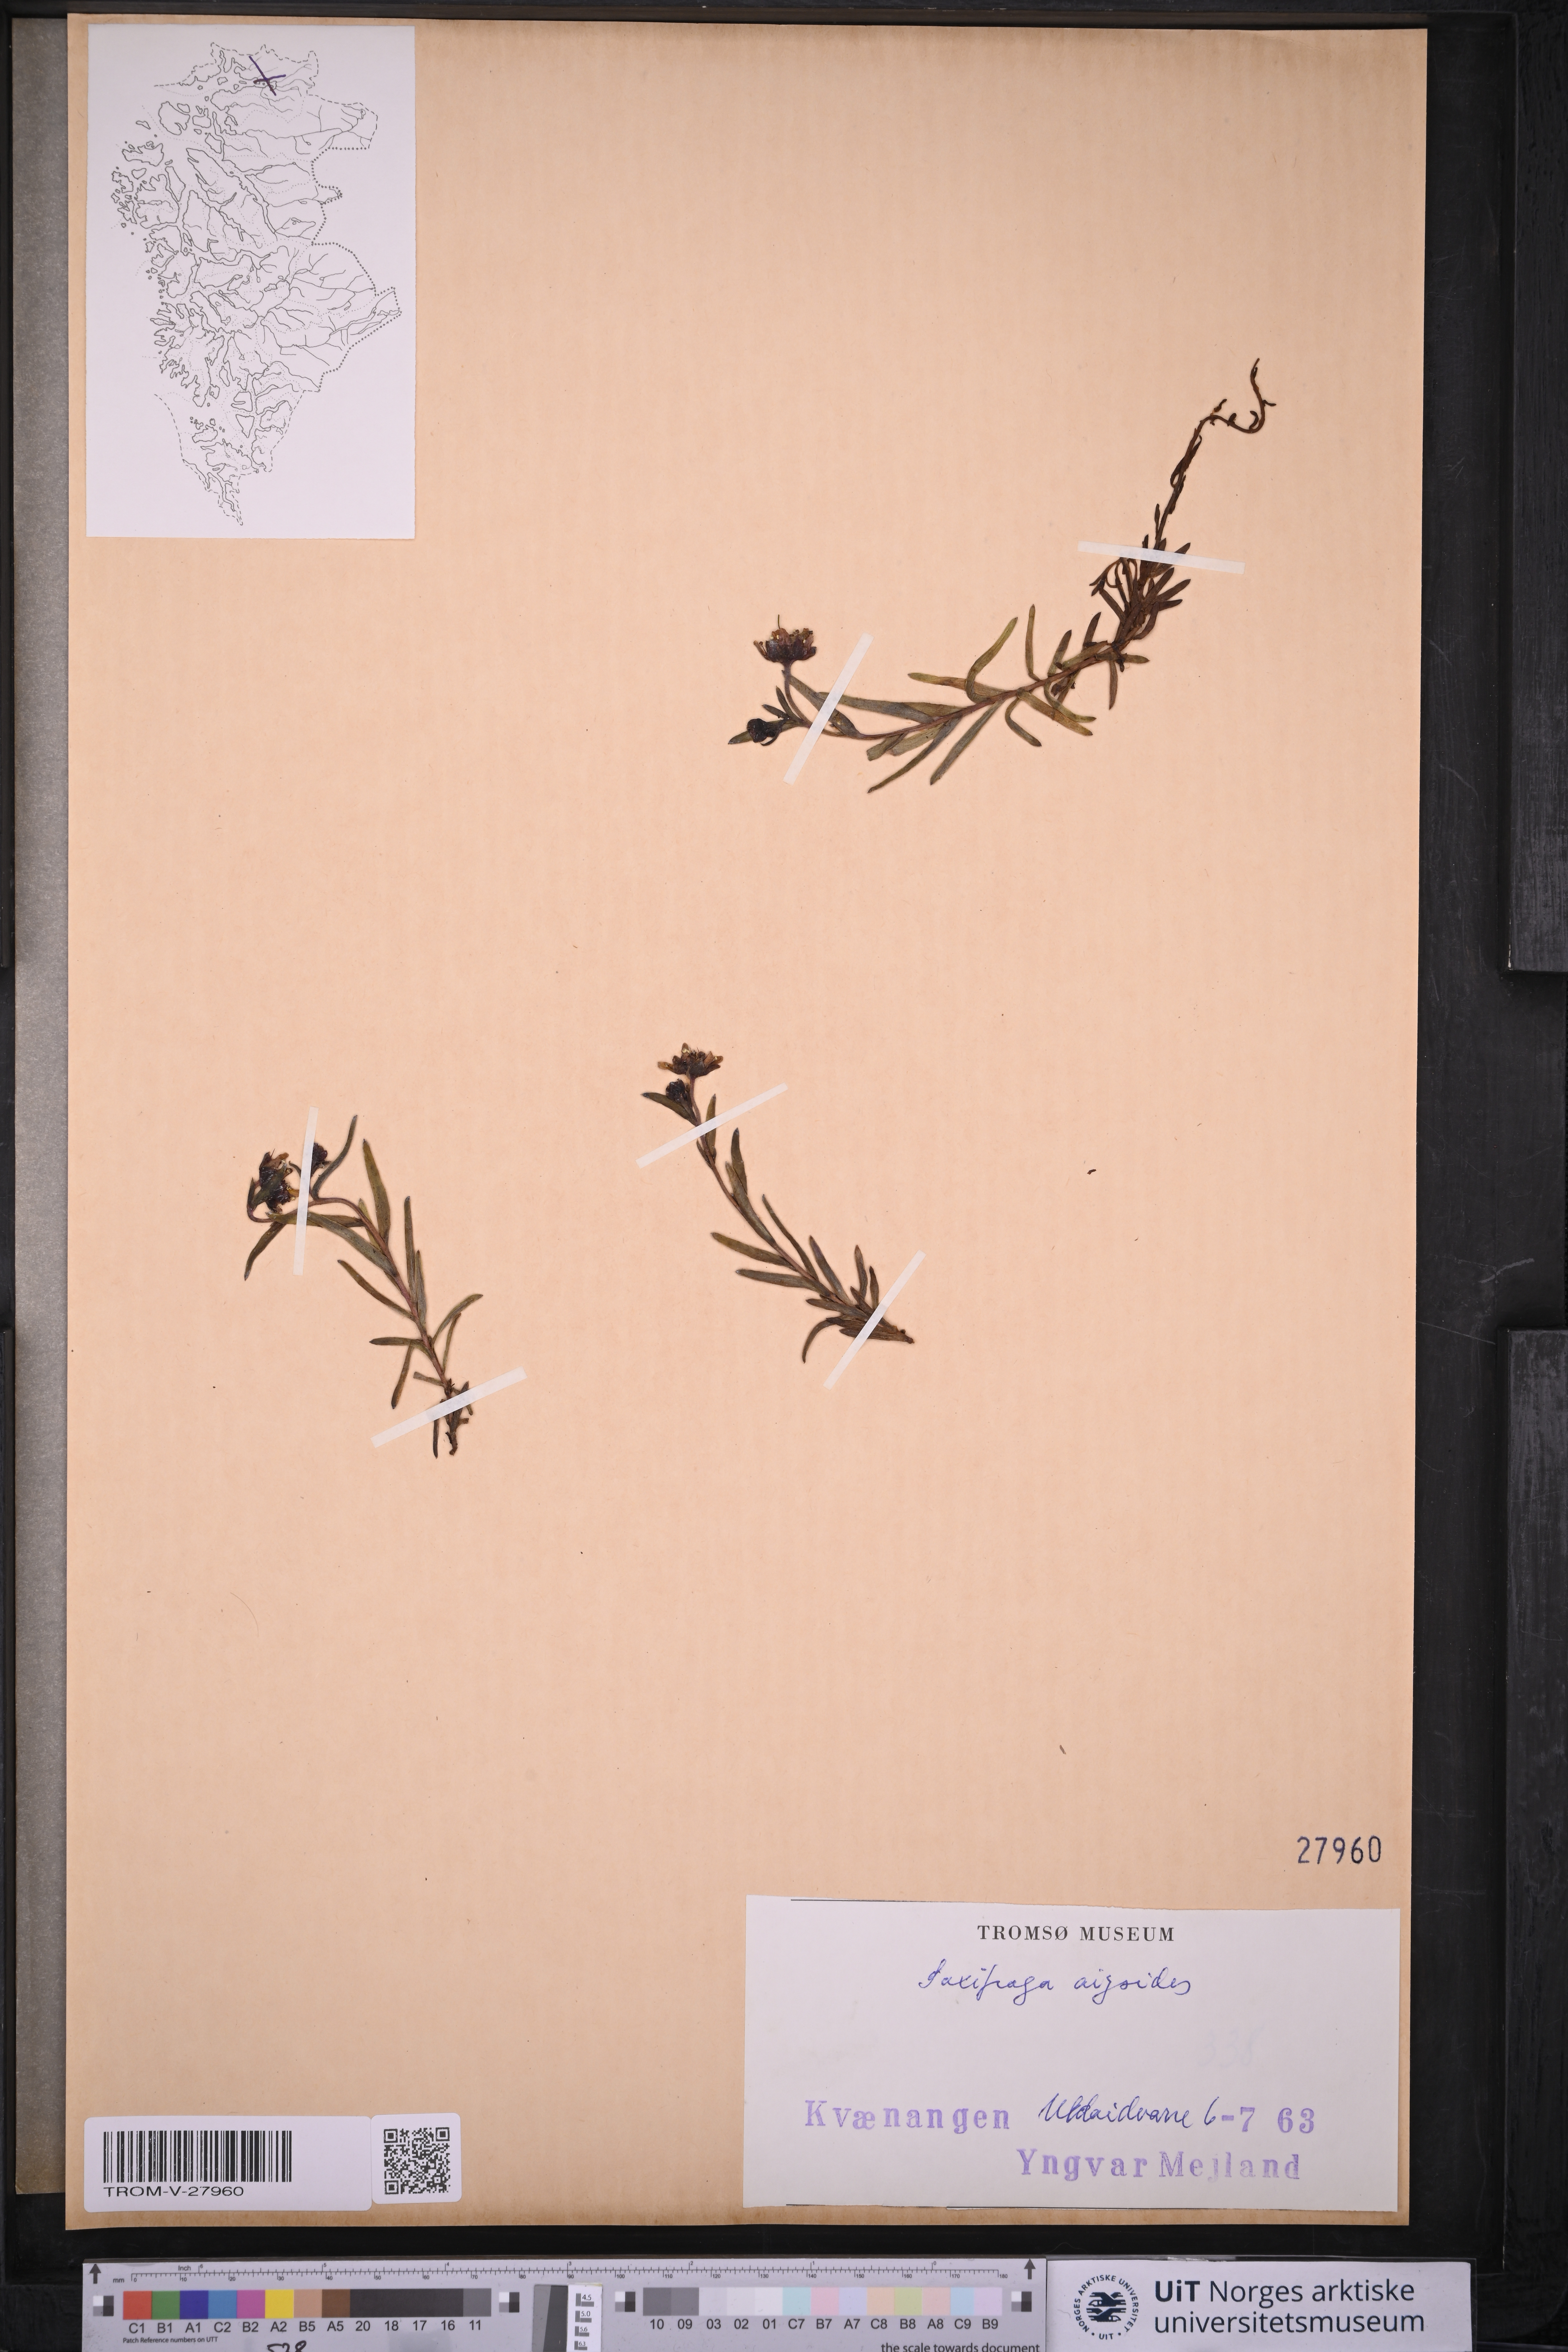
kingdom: Plantae
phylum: Tracheophyta
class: Magnoliopsida
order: Saxifragales
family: Saxifragaceae
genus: Saxifraga
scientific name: Saxifraga aizoides
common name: Yellow mountain saxifrage
